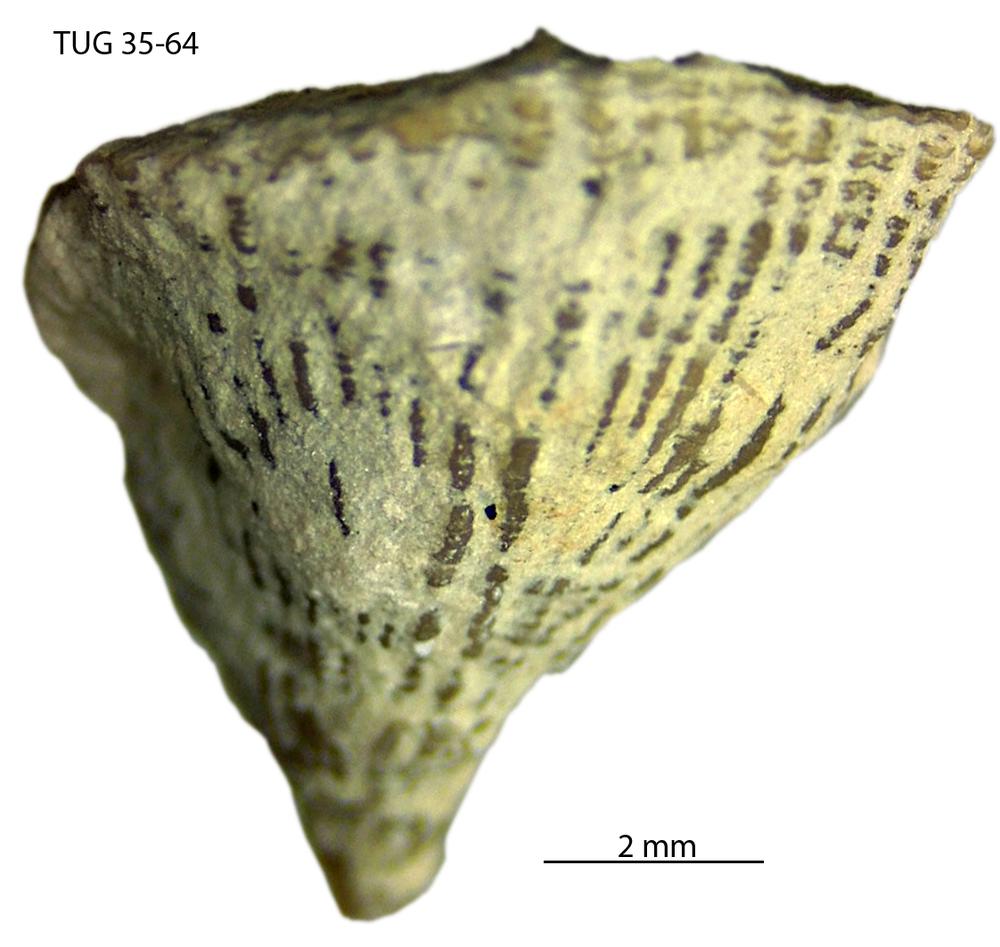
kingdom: Animalia
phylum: Cnidaria
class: Anthozoa
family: Streptelasmatidae
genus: Streptelasma
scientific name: Streptelasma
